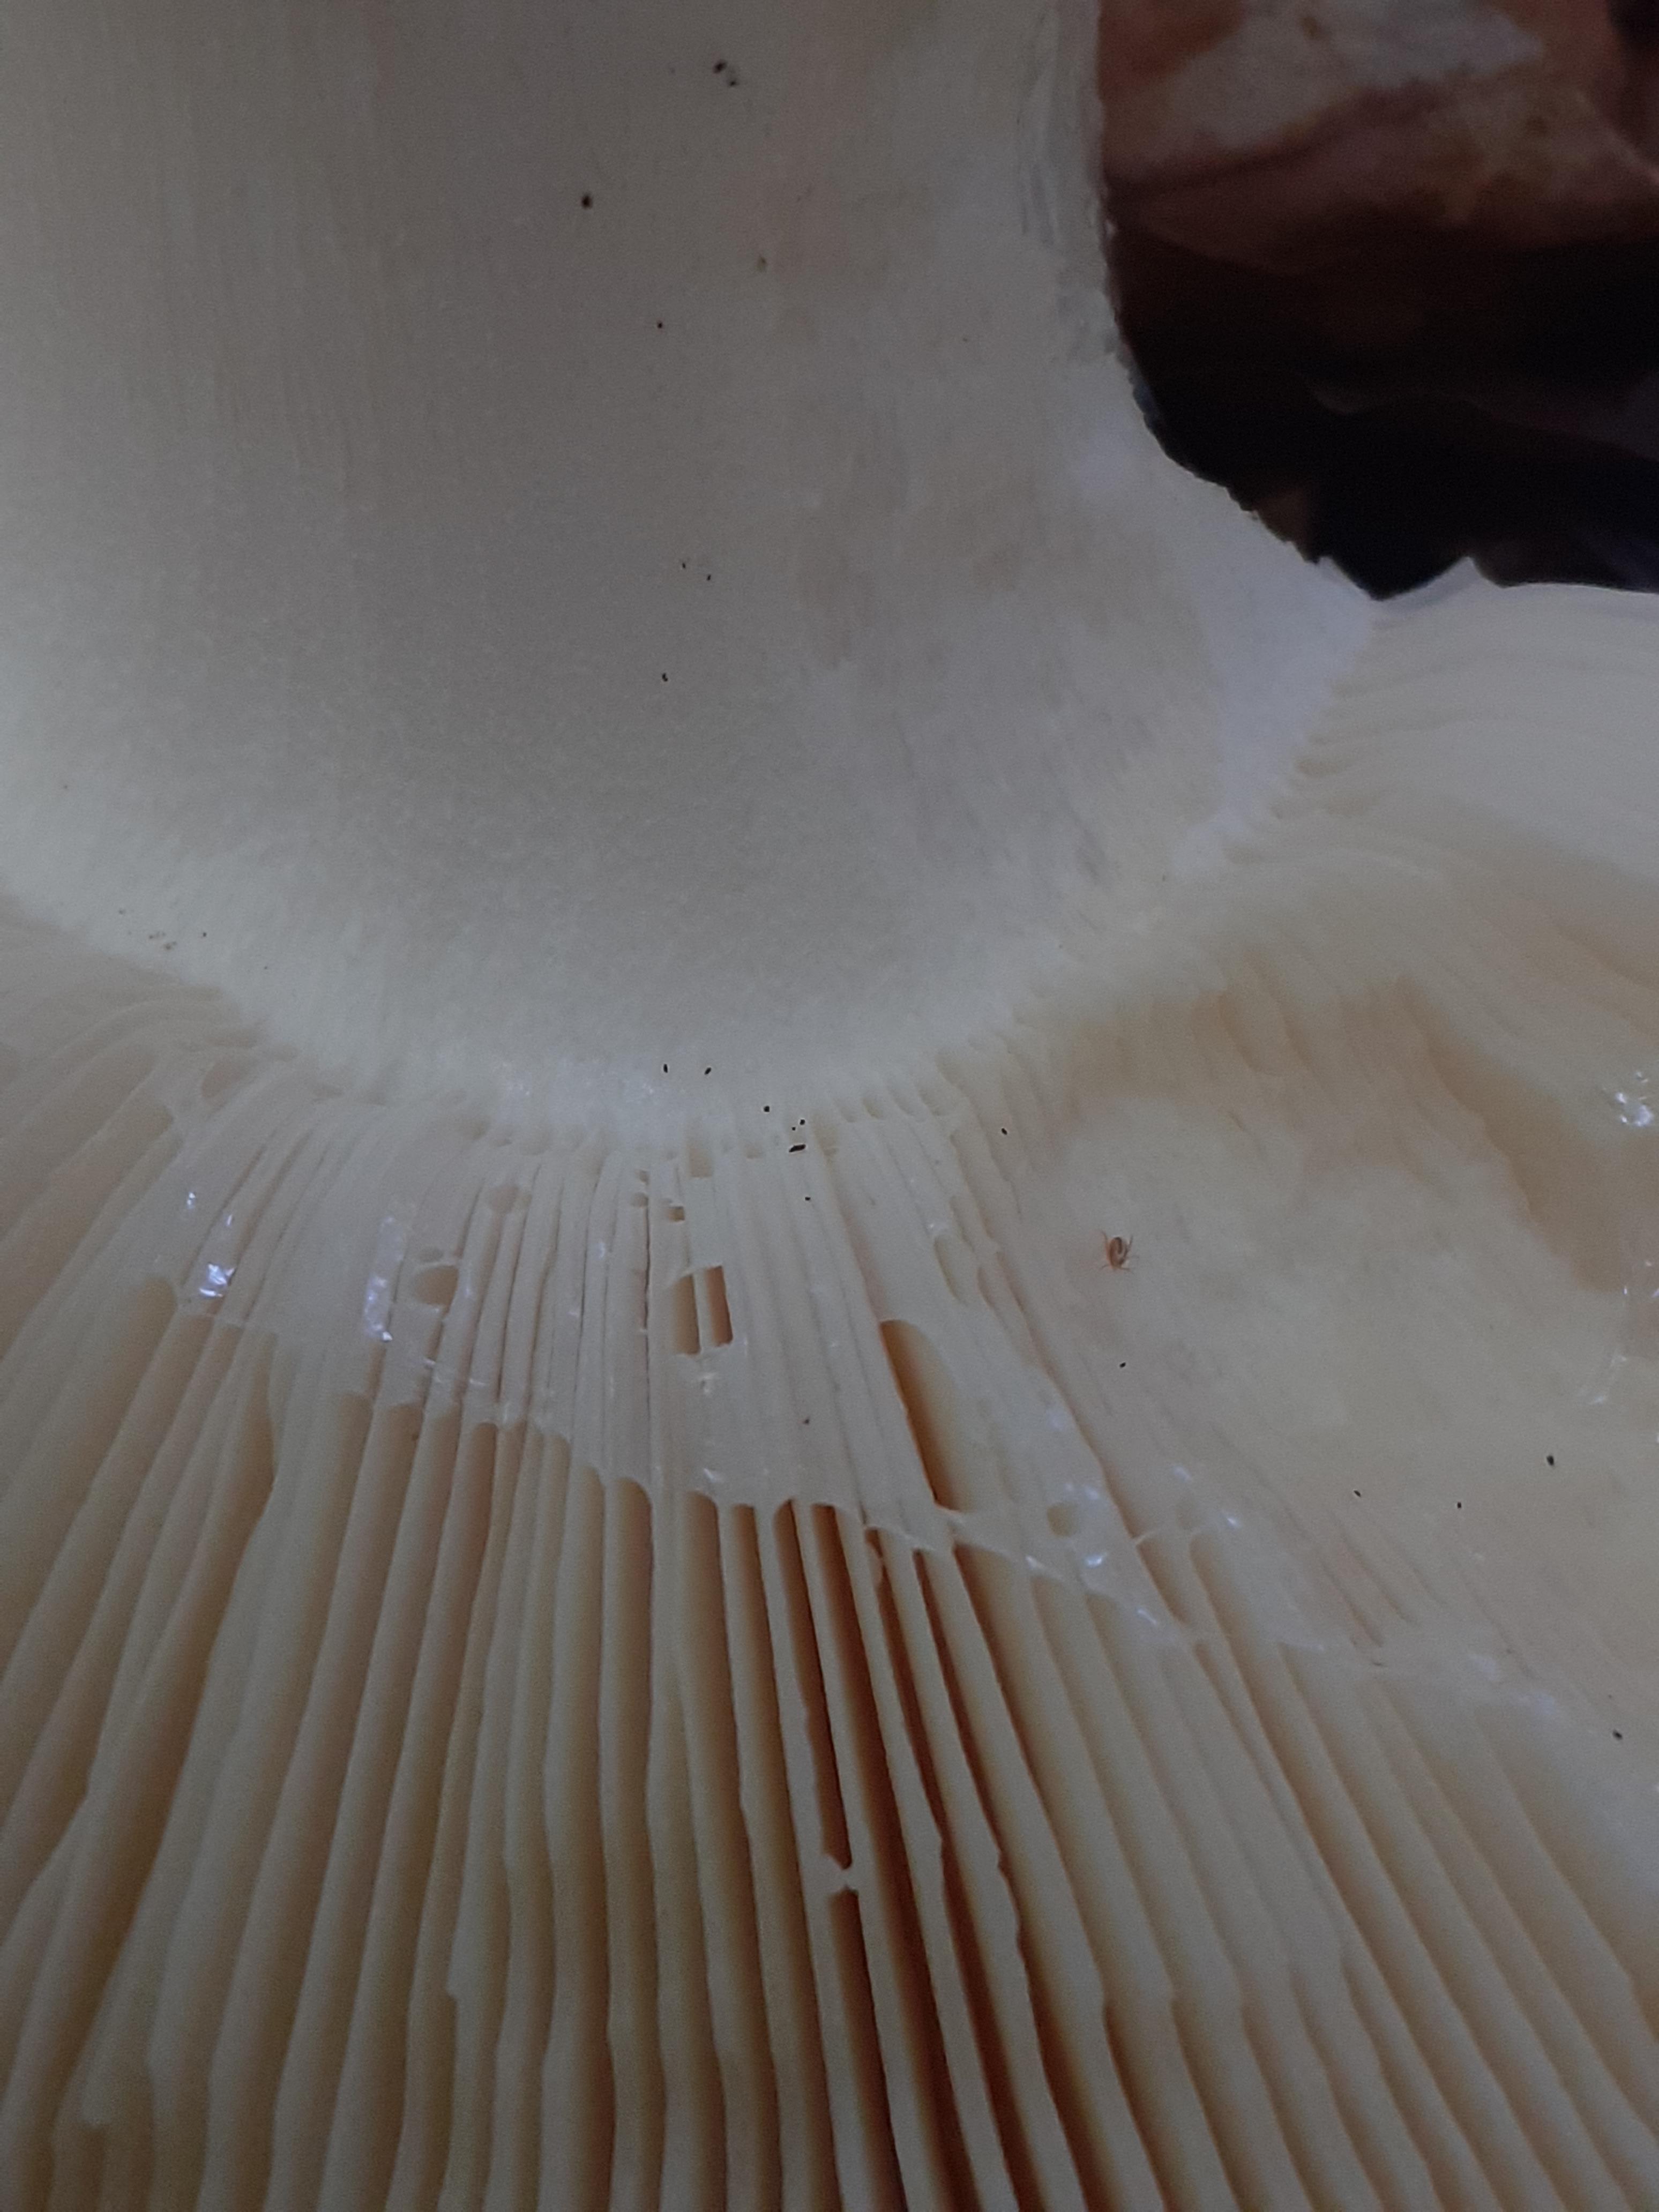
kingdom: Fungi
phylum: Basidiomycota
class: Agaricomycetes
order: Russulales
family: Russulaceae
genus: Russula
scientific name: Russula aurora
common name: rosa skørhat
